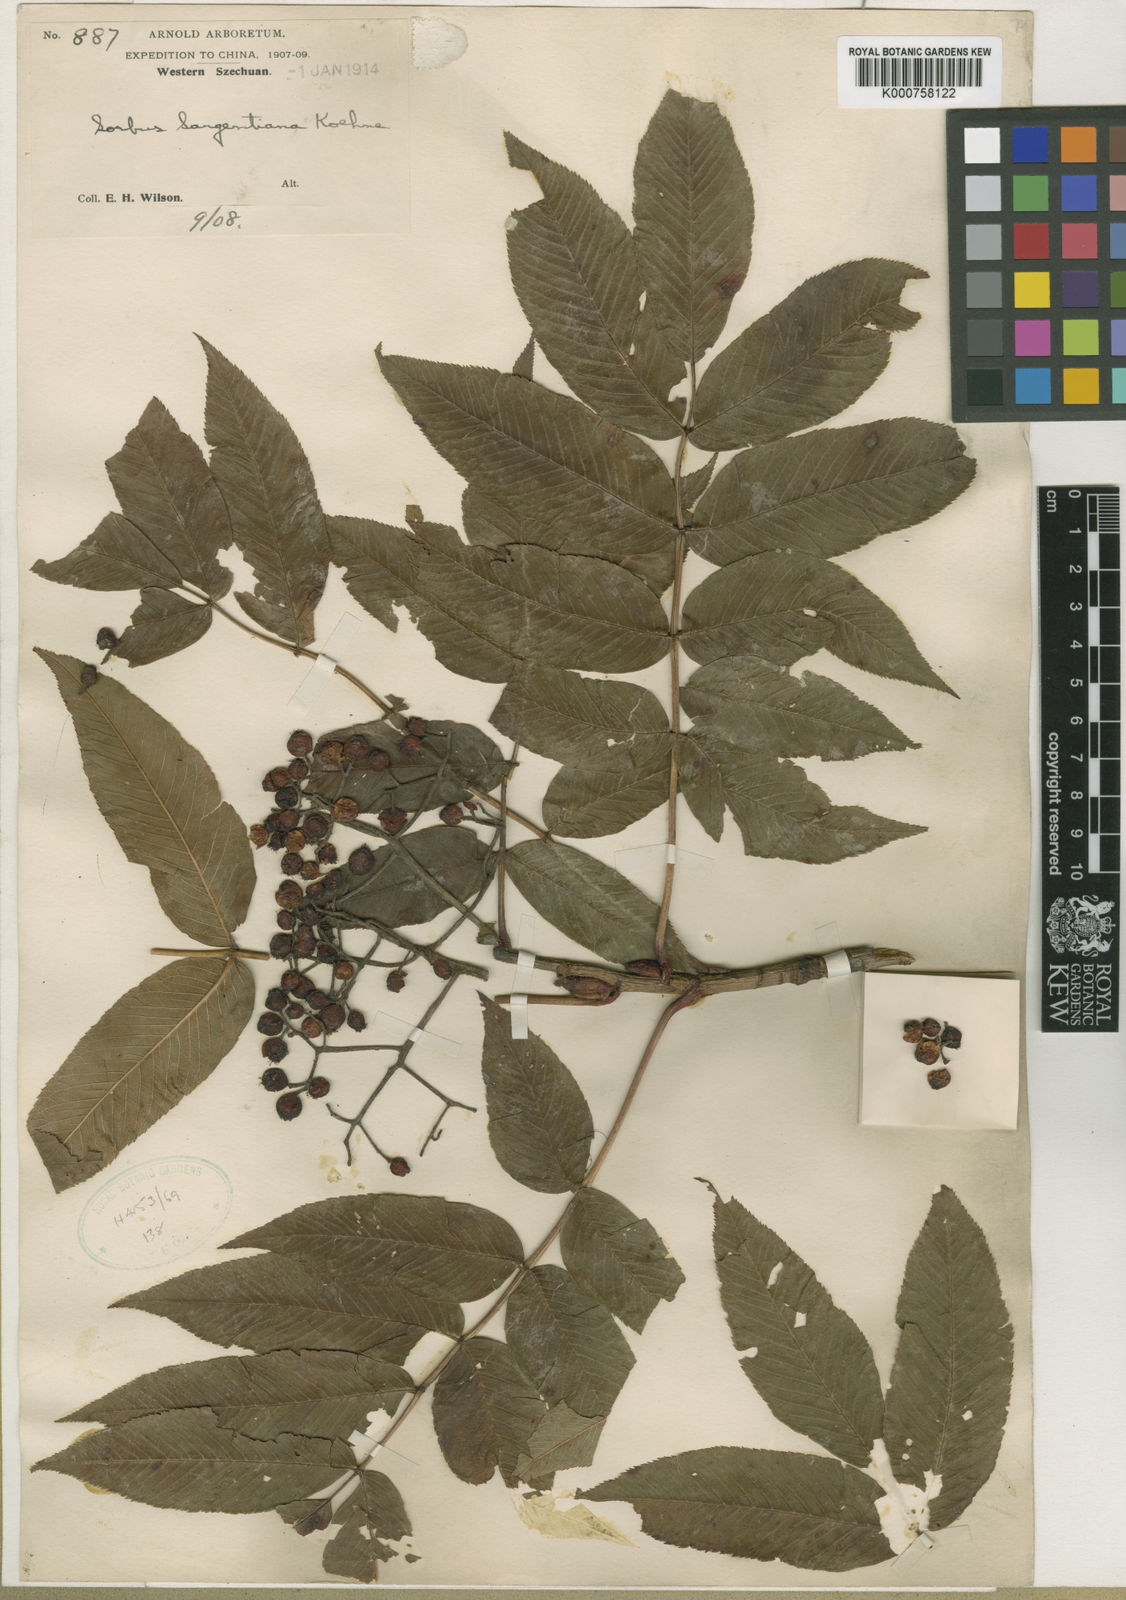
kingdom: Plantae
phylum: Tracheophyta
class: Magnoliopsida
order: Rosales
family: Rosaceae
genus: Sorbus
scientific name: Sorbus sargentiana
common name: Sargent's rowan
